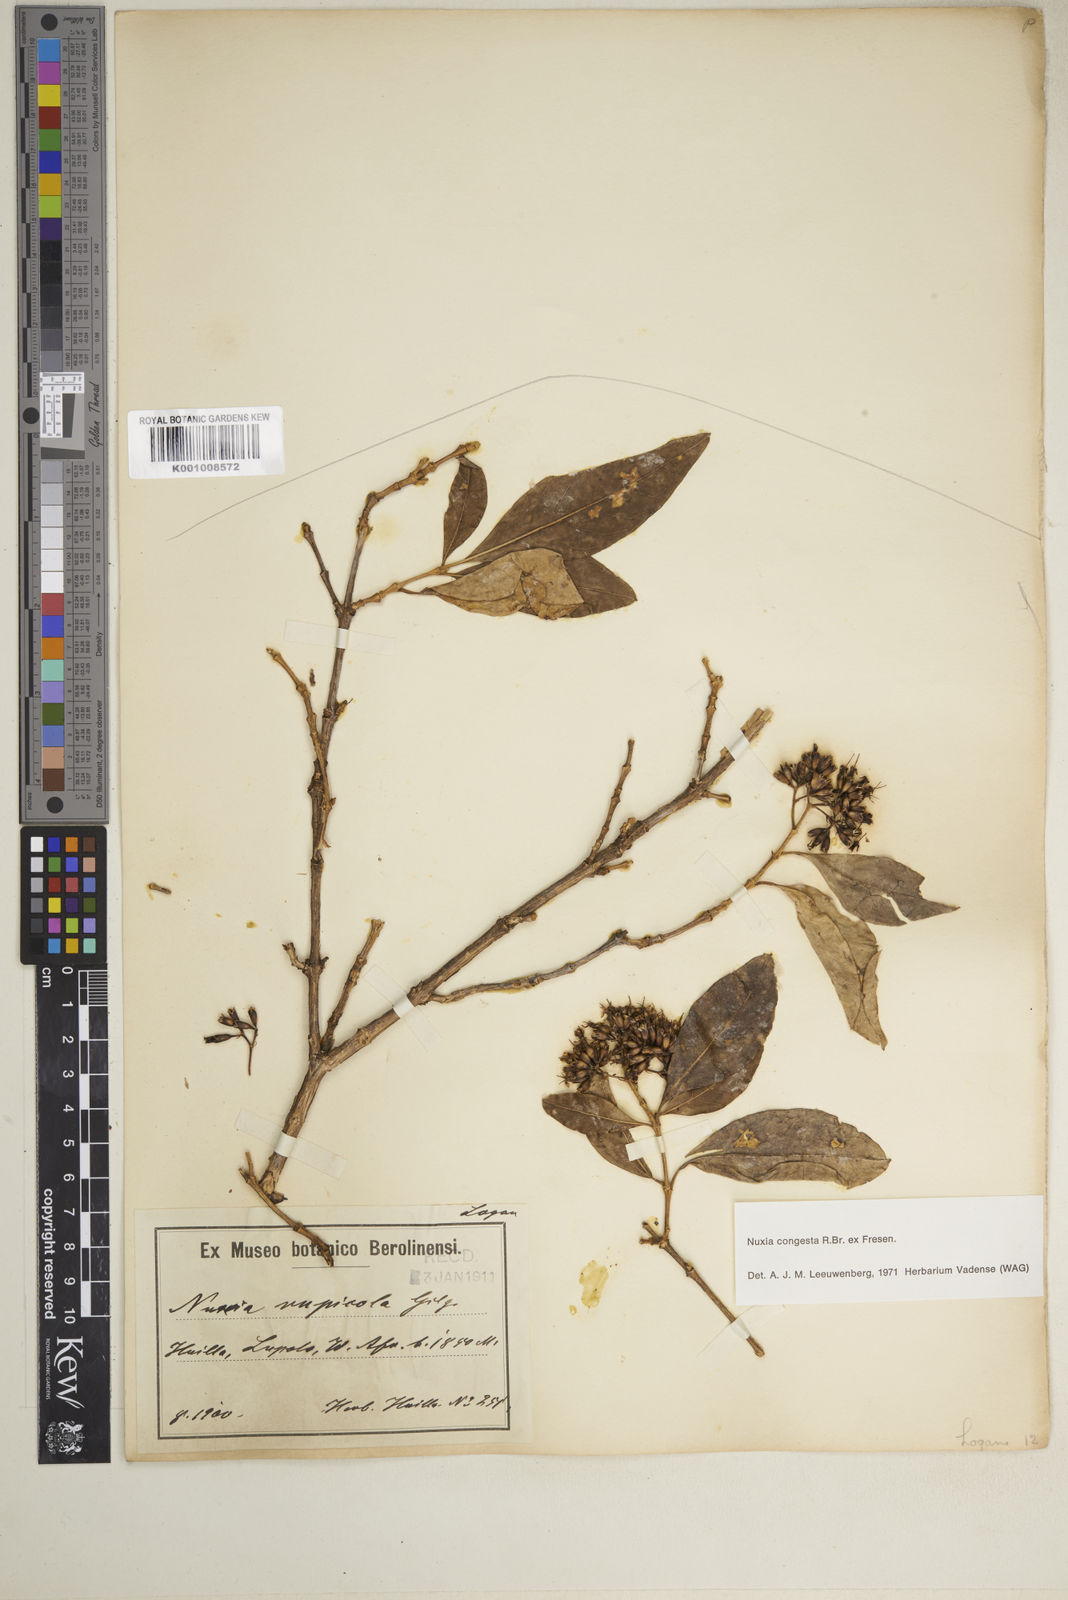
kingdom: Plantae
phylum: Tracheophyta
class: Magnoliopsida
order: Lamiales
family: Stilbaceae
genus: Nuxia
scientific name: Nuxia congesta
